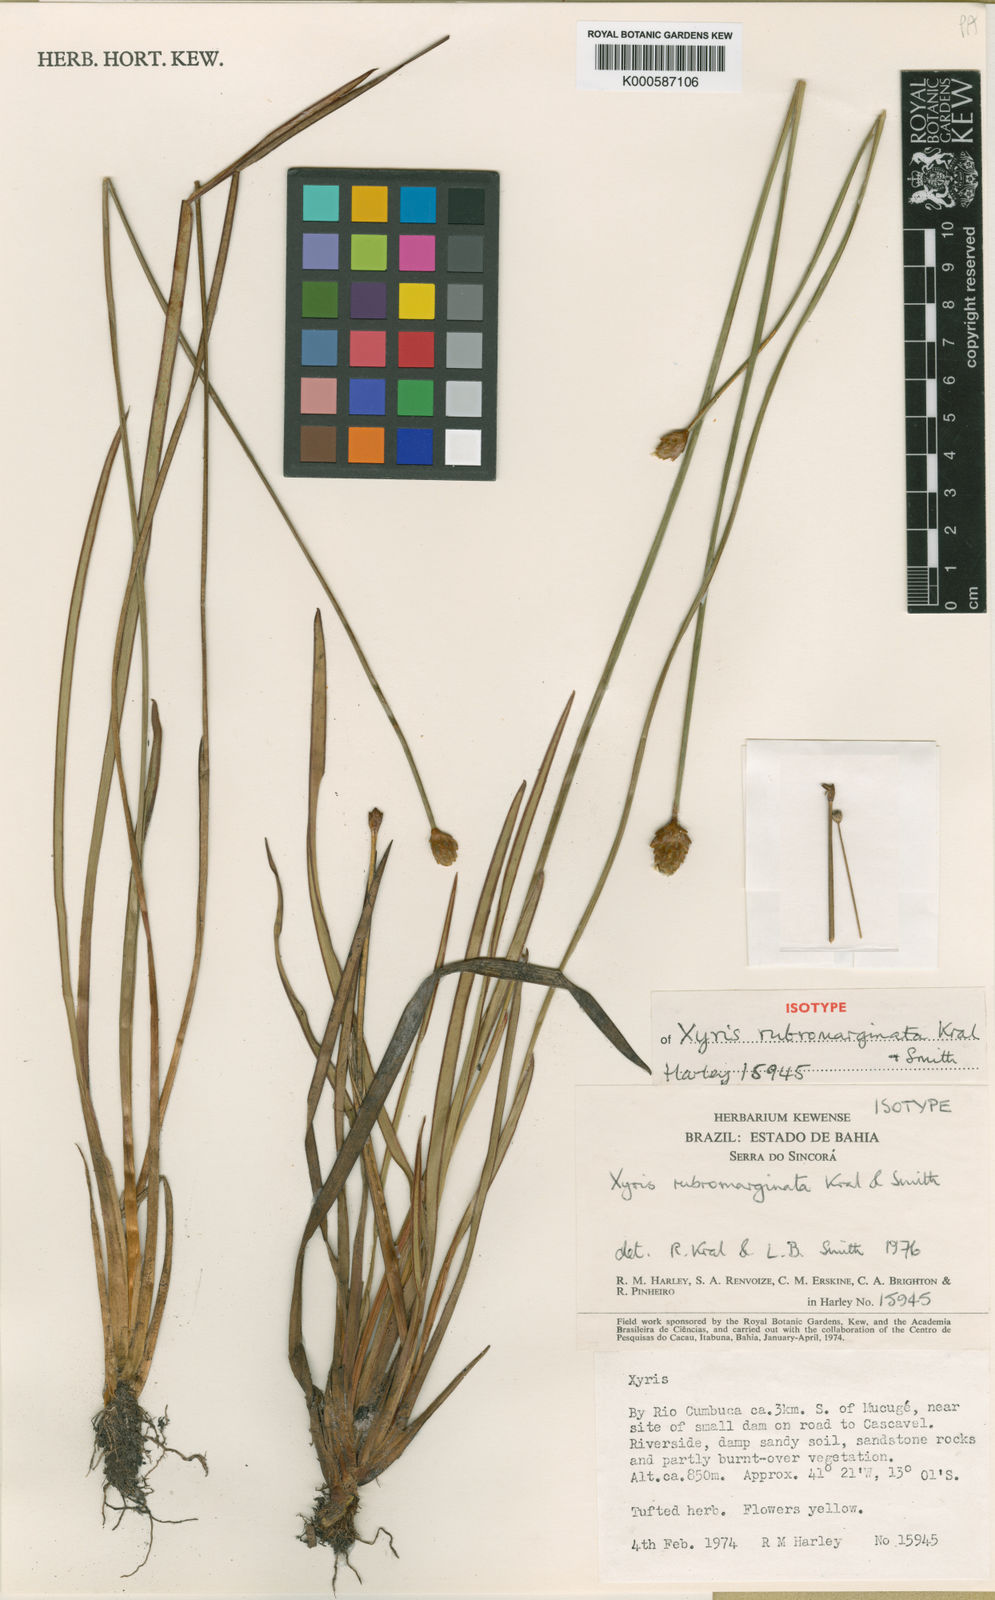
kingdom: Plantae
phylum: Tracheophyta
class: Liliopsida
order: Poales
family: Xyridaceae
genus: Xyris
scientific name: Xyris rubromarginata
